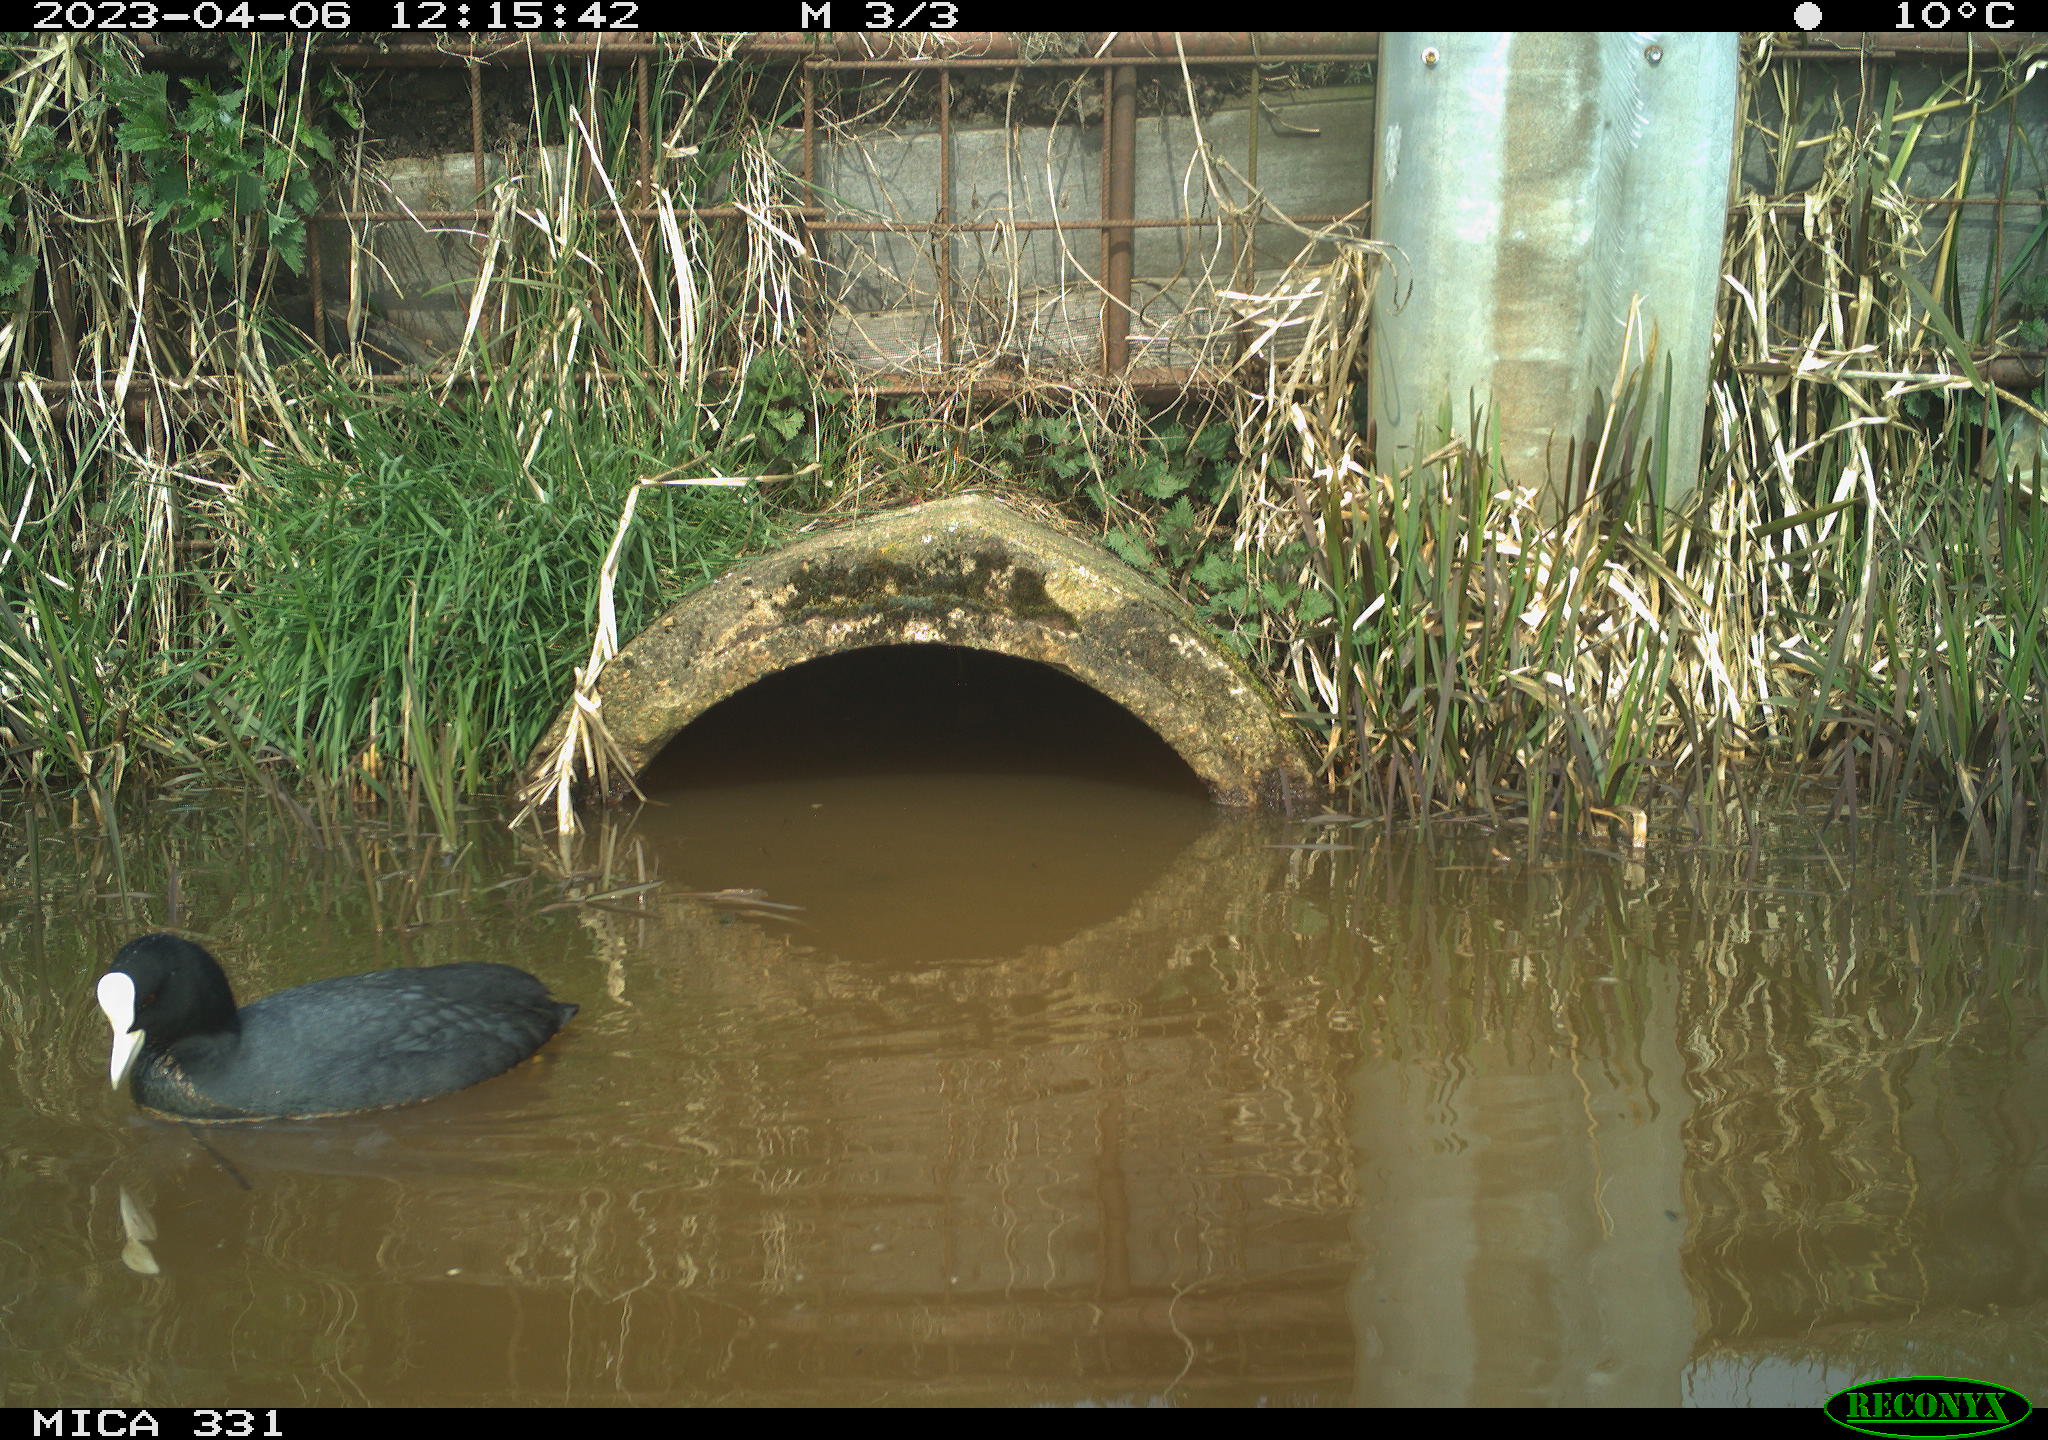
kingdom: Animalia
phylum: Chordata
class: Aves
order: Gruiformes
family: Rallidae
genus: Fulica
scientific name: Fulica atra
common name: Eurasian coot
